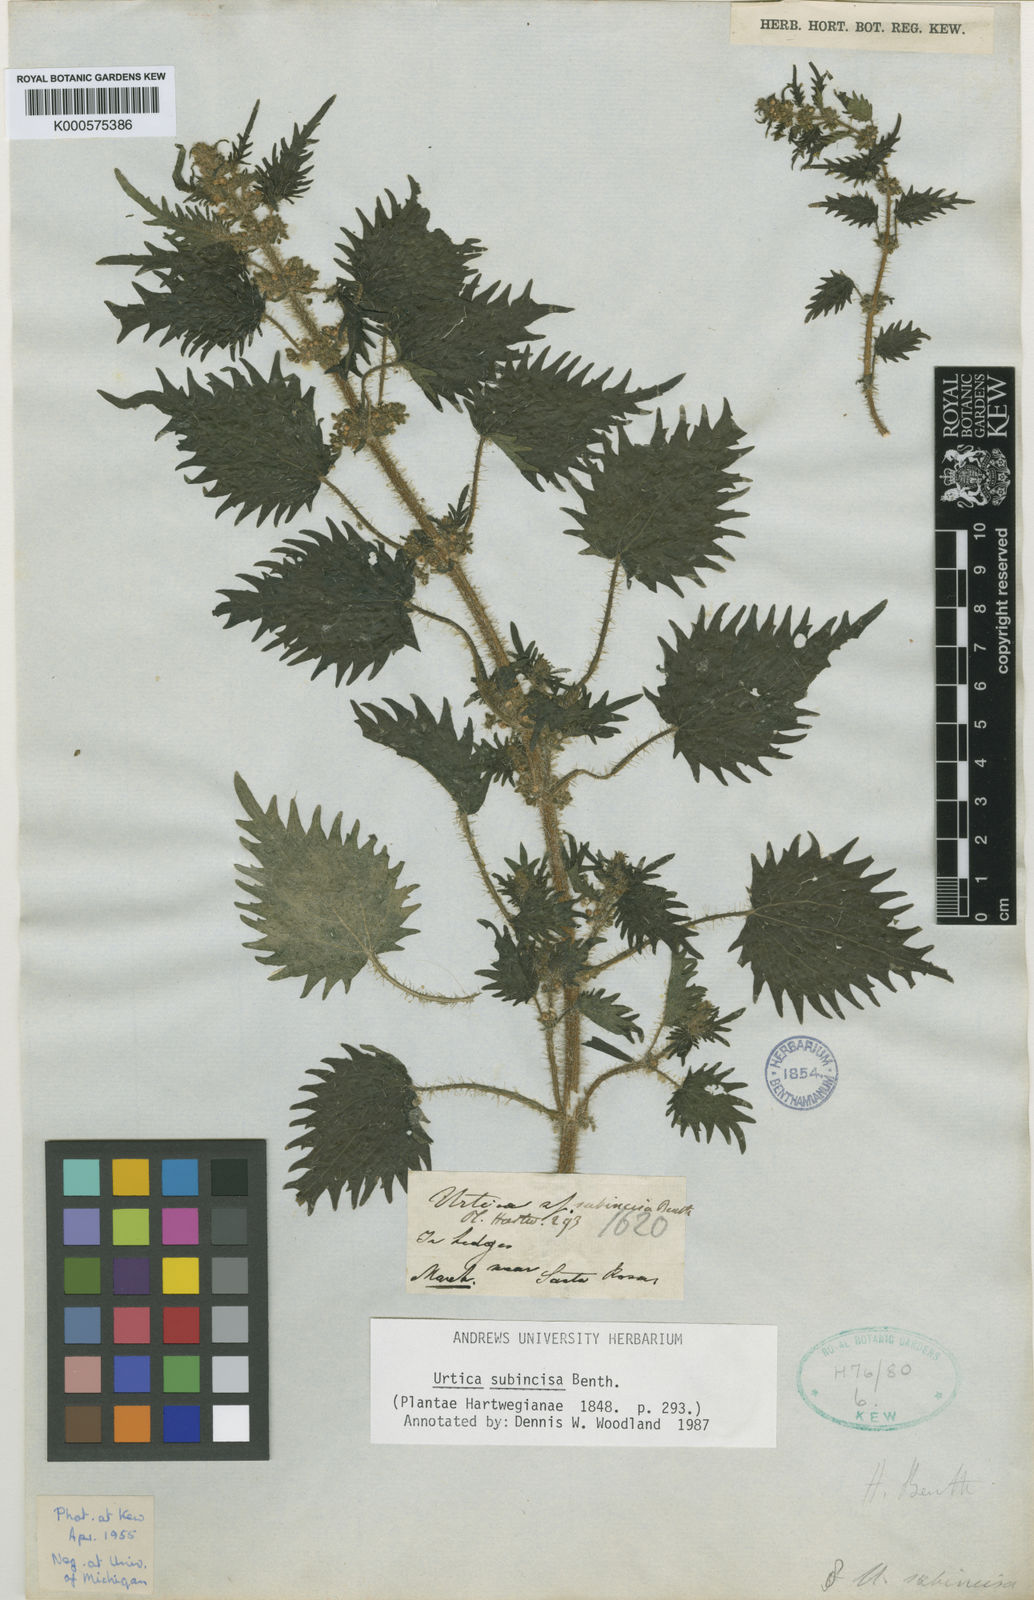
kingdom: Plantae
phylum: Tracheophyta
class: Magnoliopsida
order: Rosales
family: Urticaceae
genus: Urtica
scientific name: Urtica portosanctana
